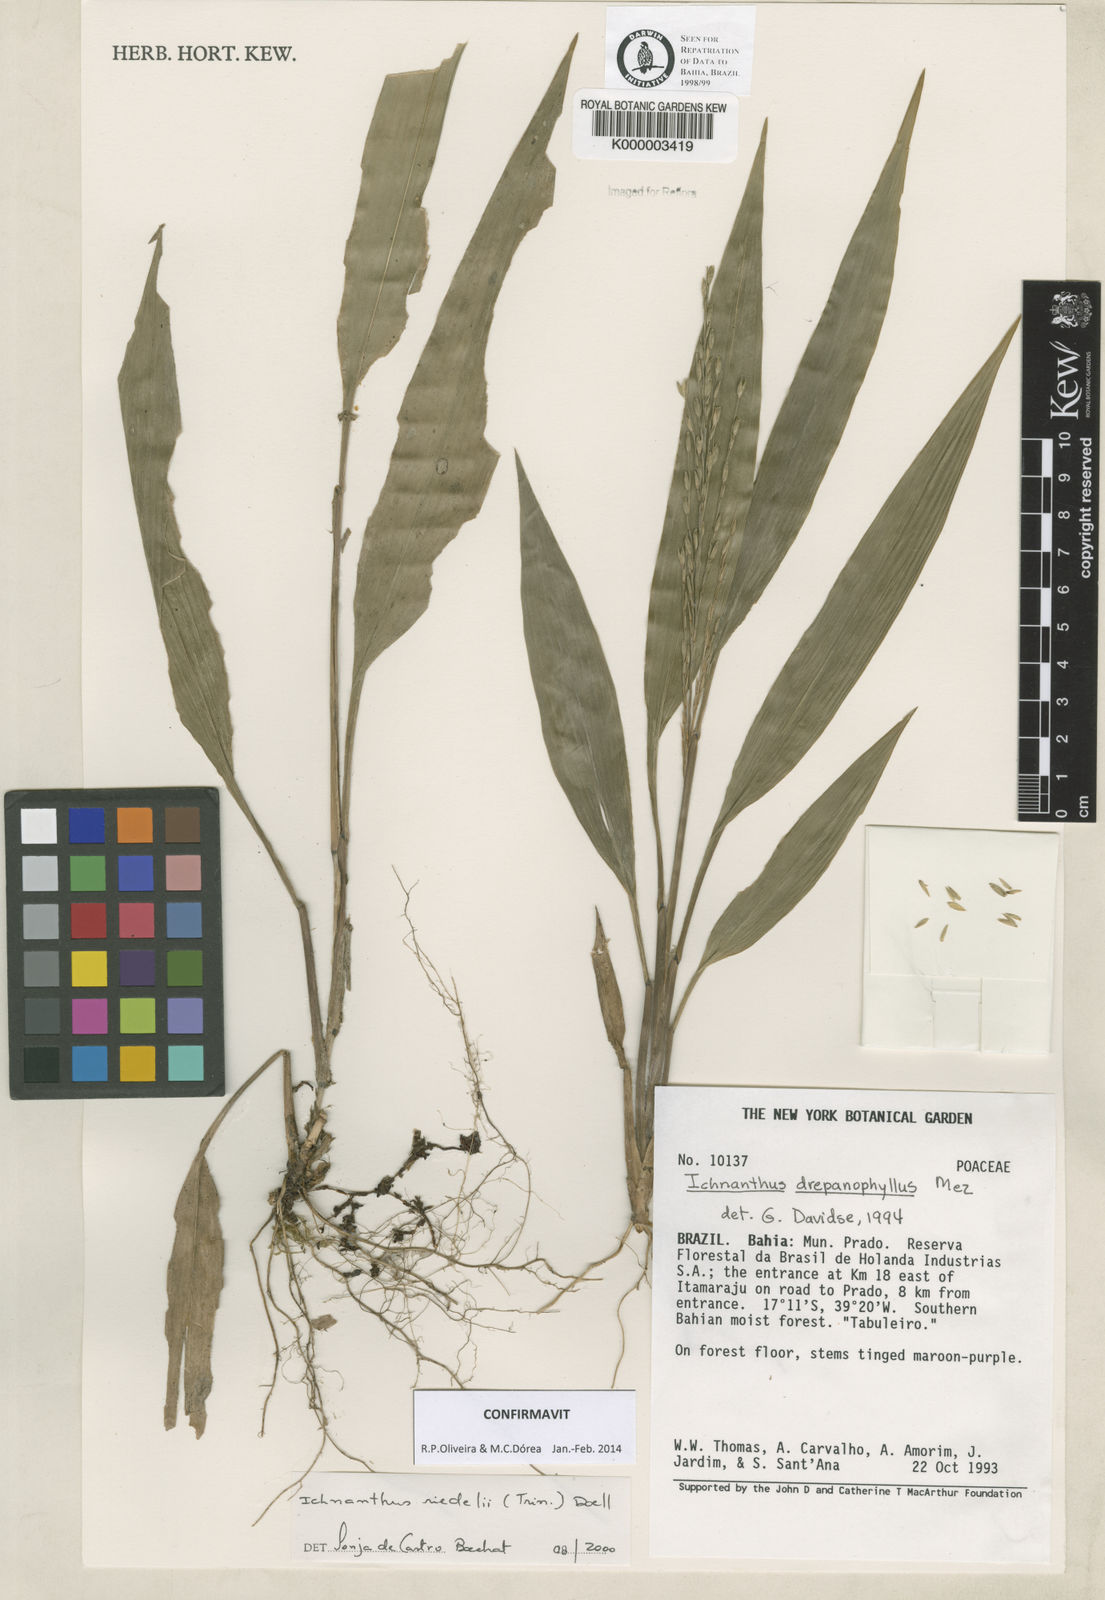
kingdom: Plantae
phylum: Tracheophyta
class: Liliopsida
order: Poales
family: Poaceae
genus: Ichnanthus
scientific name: Ichnanthus
